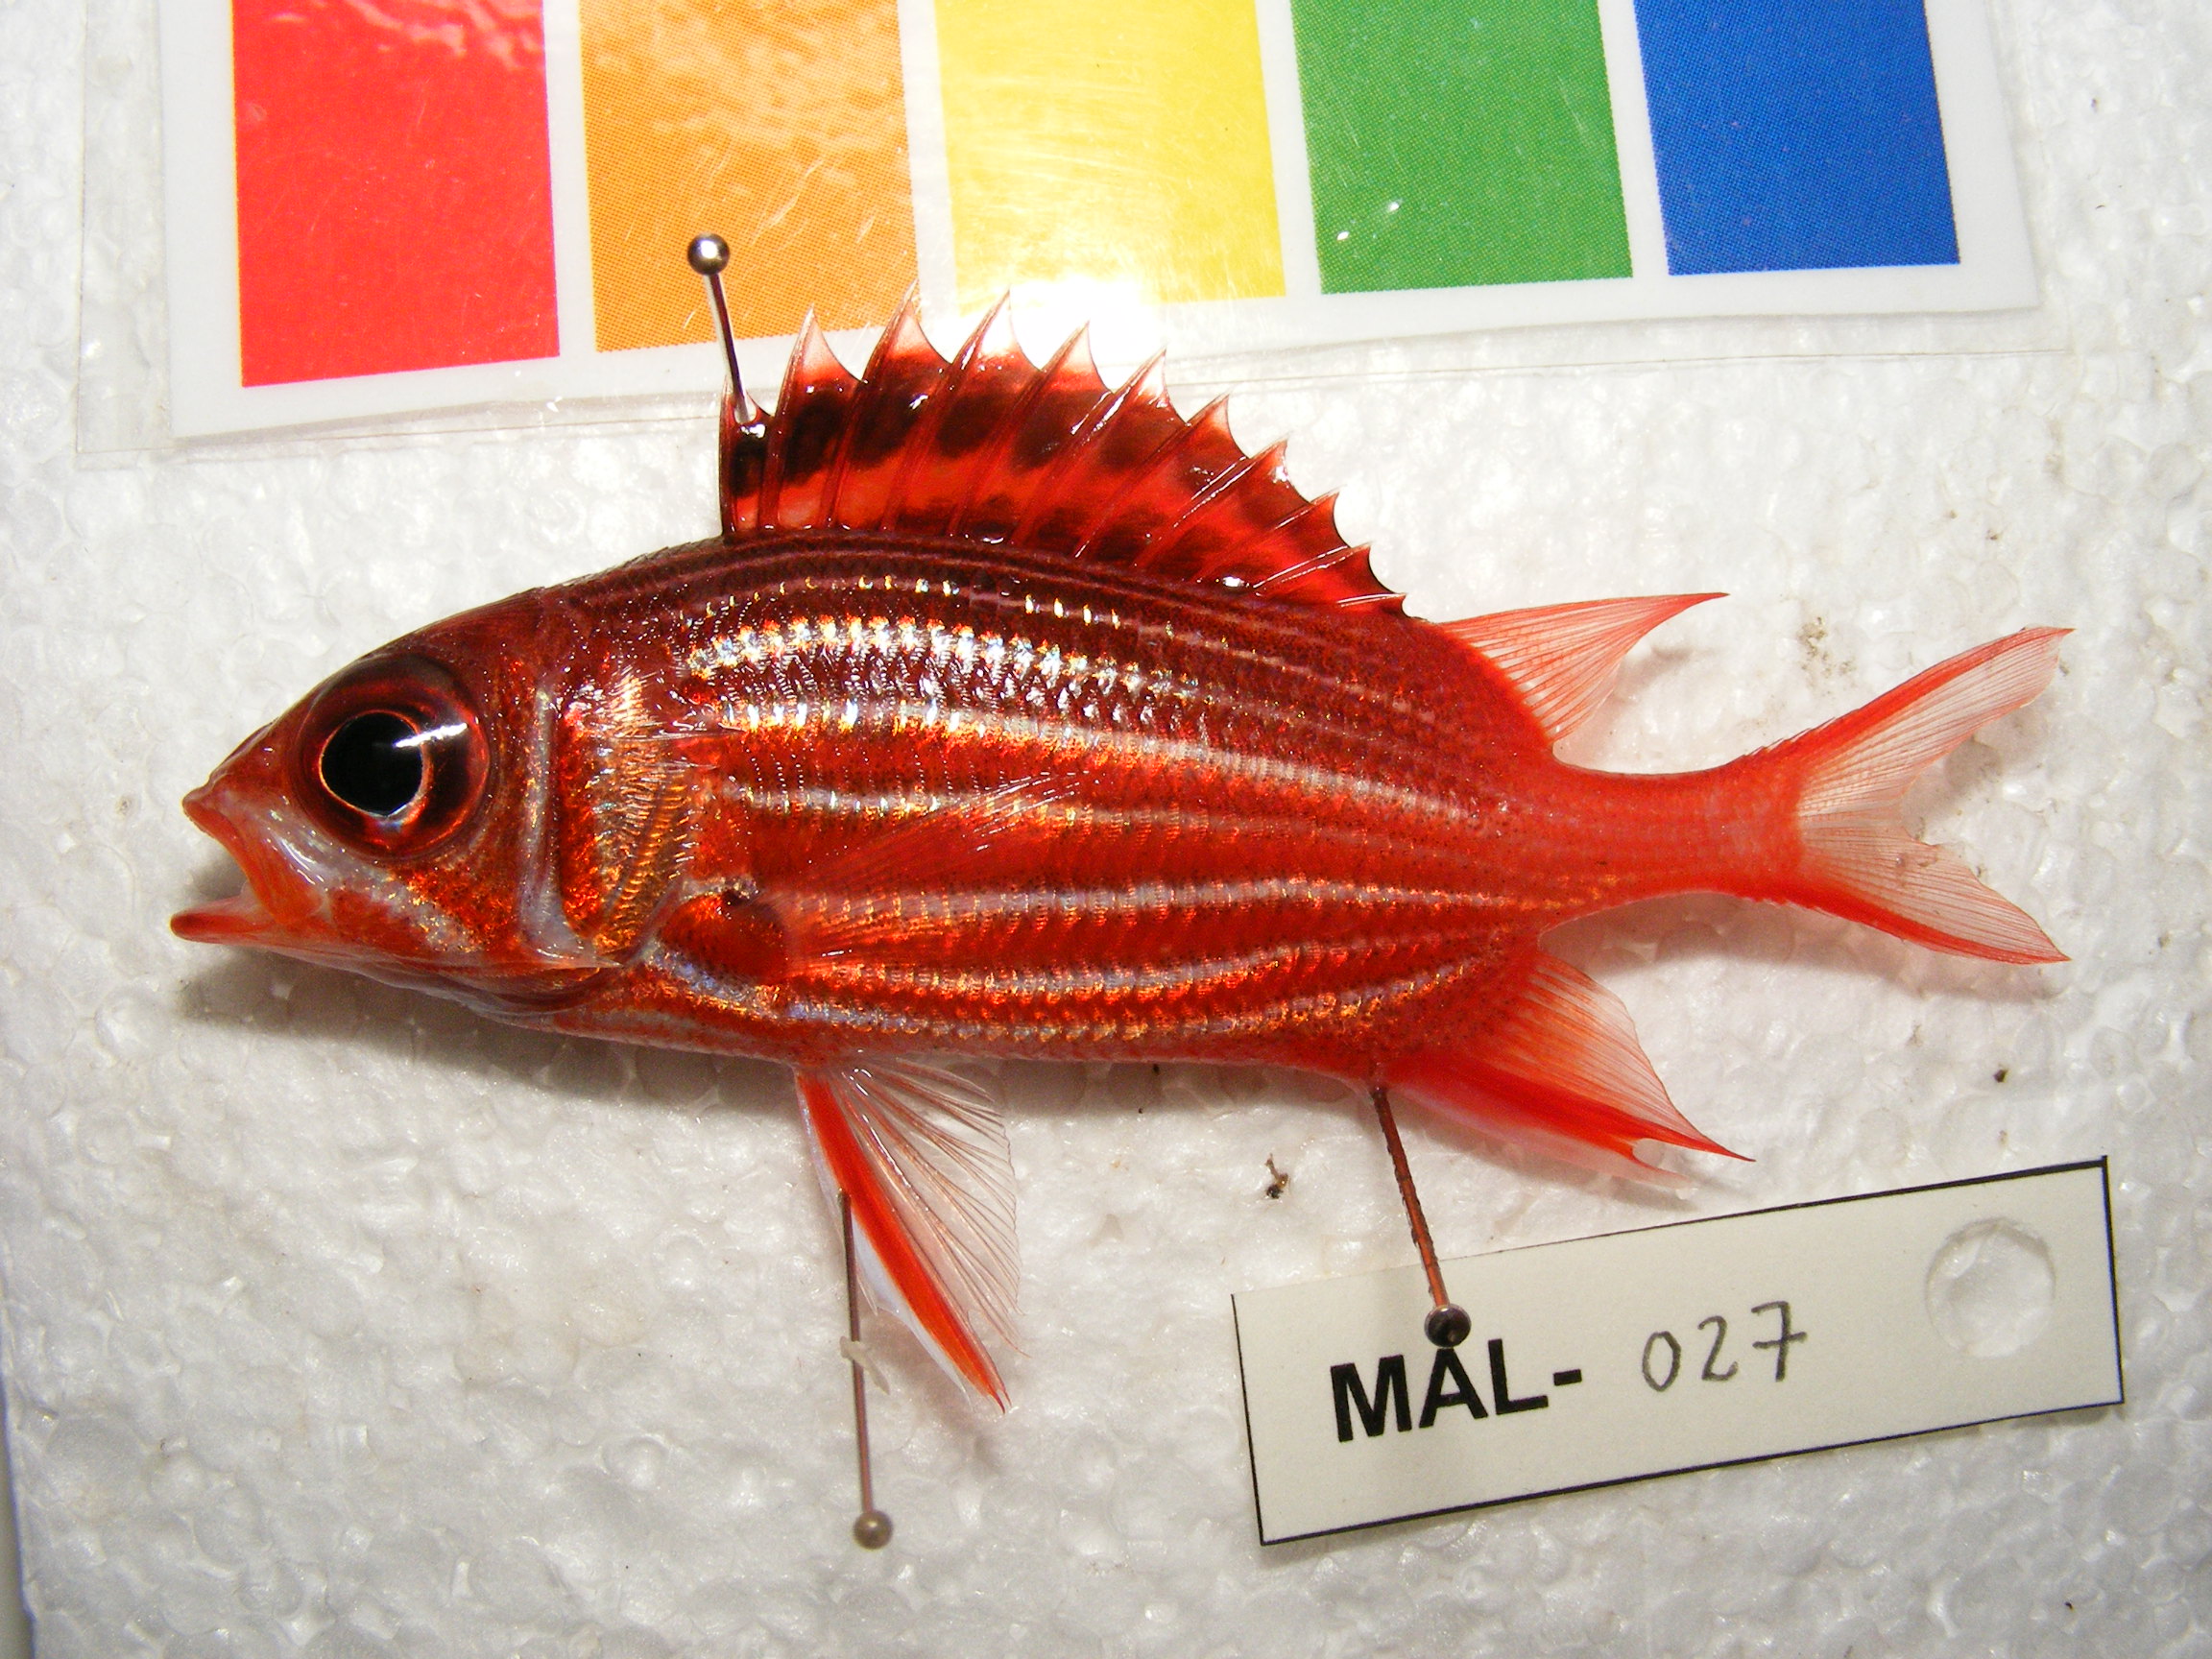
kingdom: Animalia
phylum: Chordata
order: Beryciformes
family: Holocentridae
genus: Sargocentron
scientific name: Sargocentron diadema
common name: Crown squirrelfish
